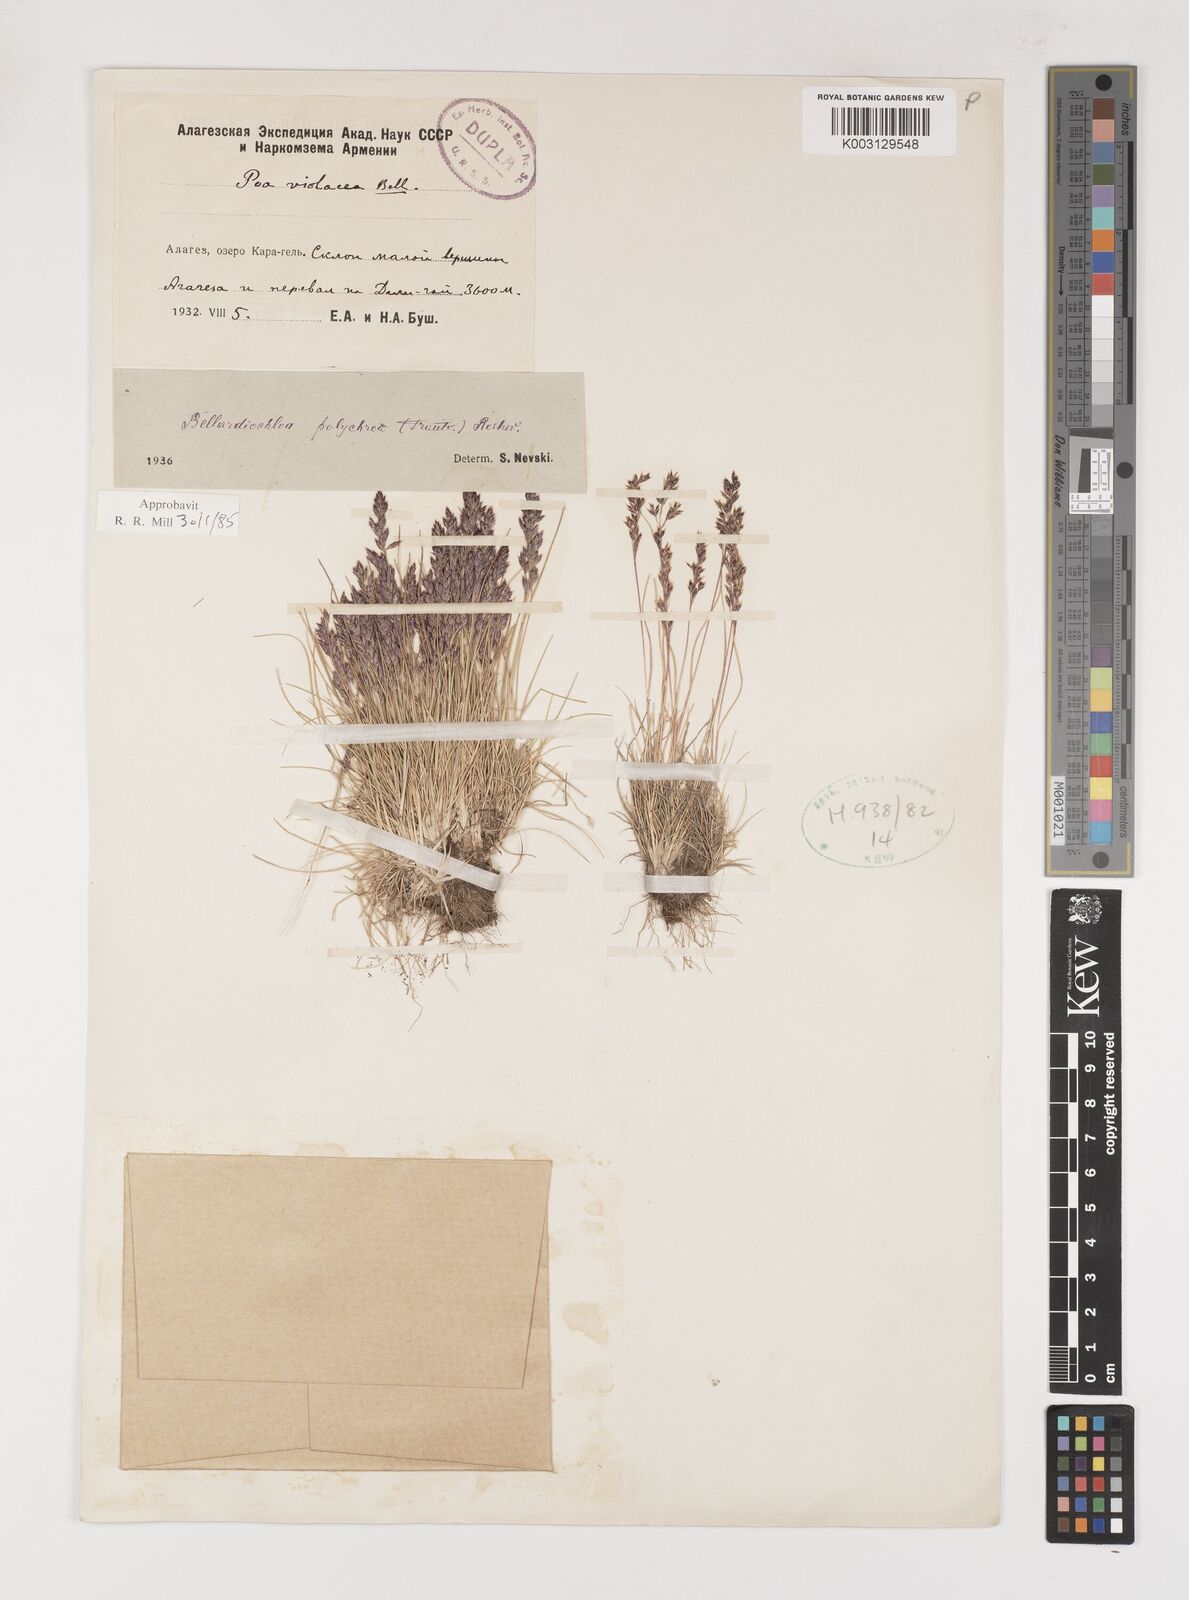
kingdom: Plantae
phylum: Tracheophyta
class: Liliopsida
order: Poales
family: Poaceae
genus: Poa
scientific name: Poa
